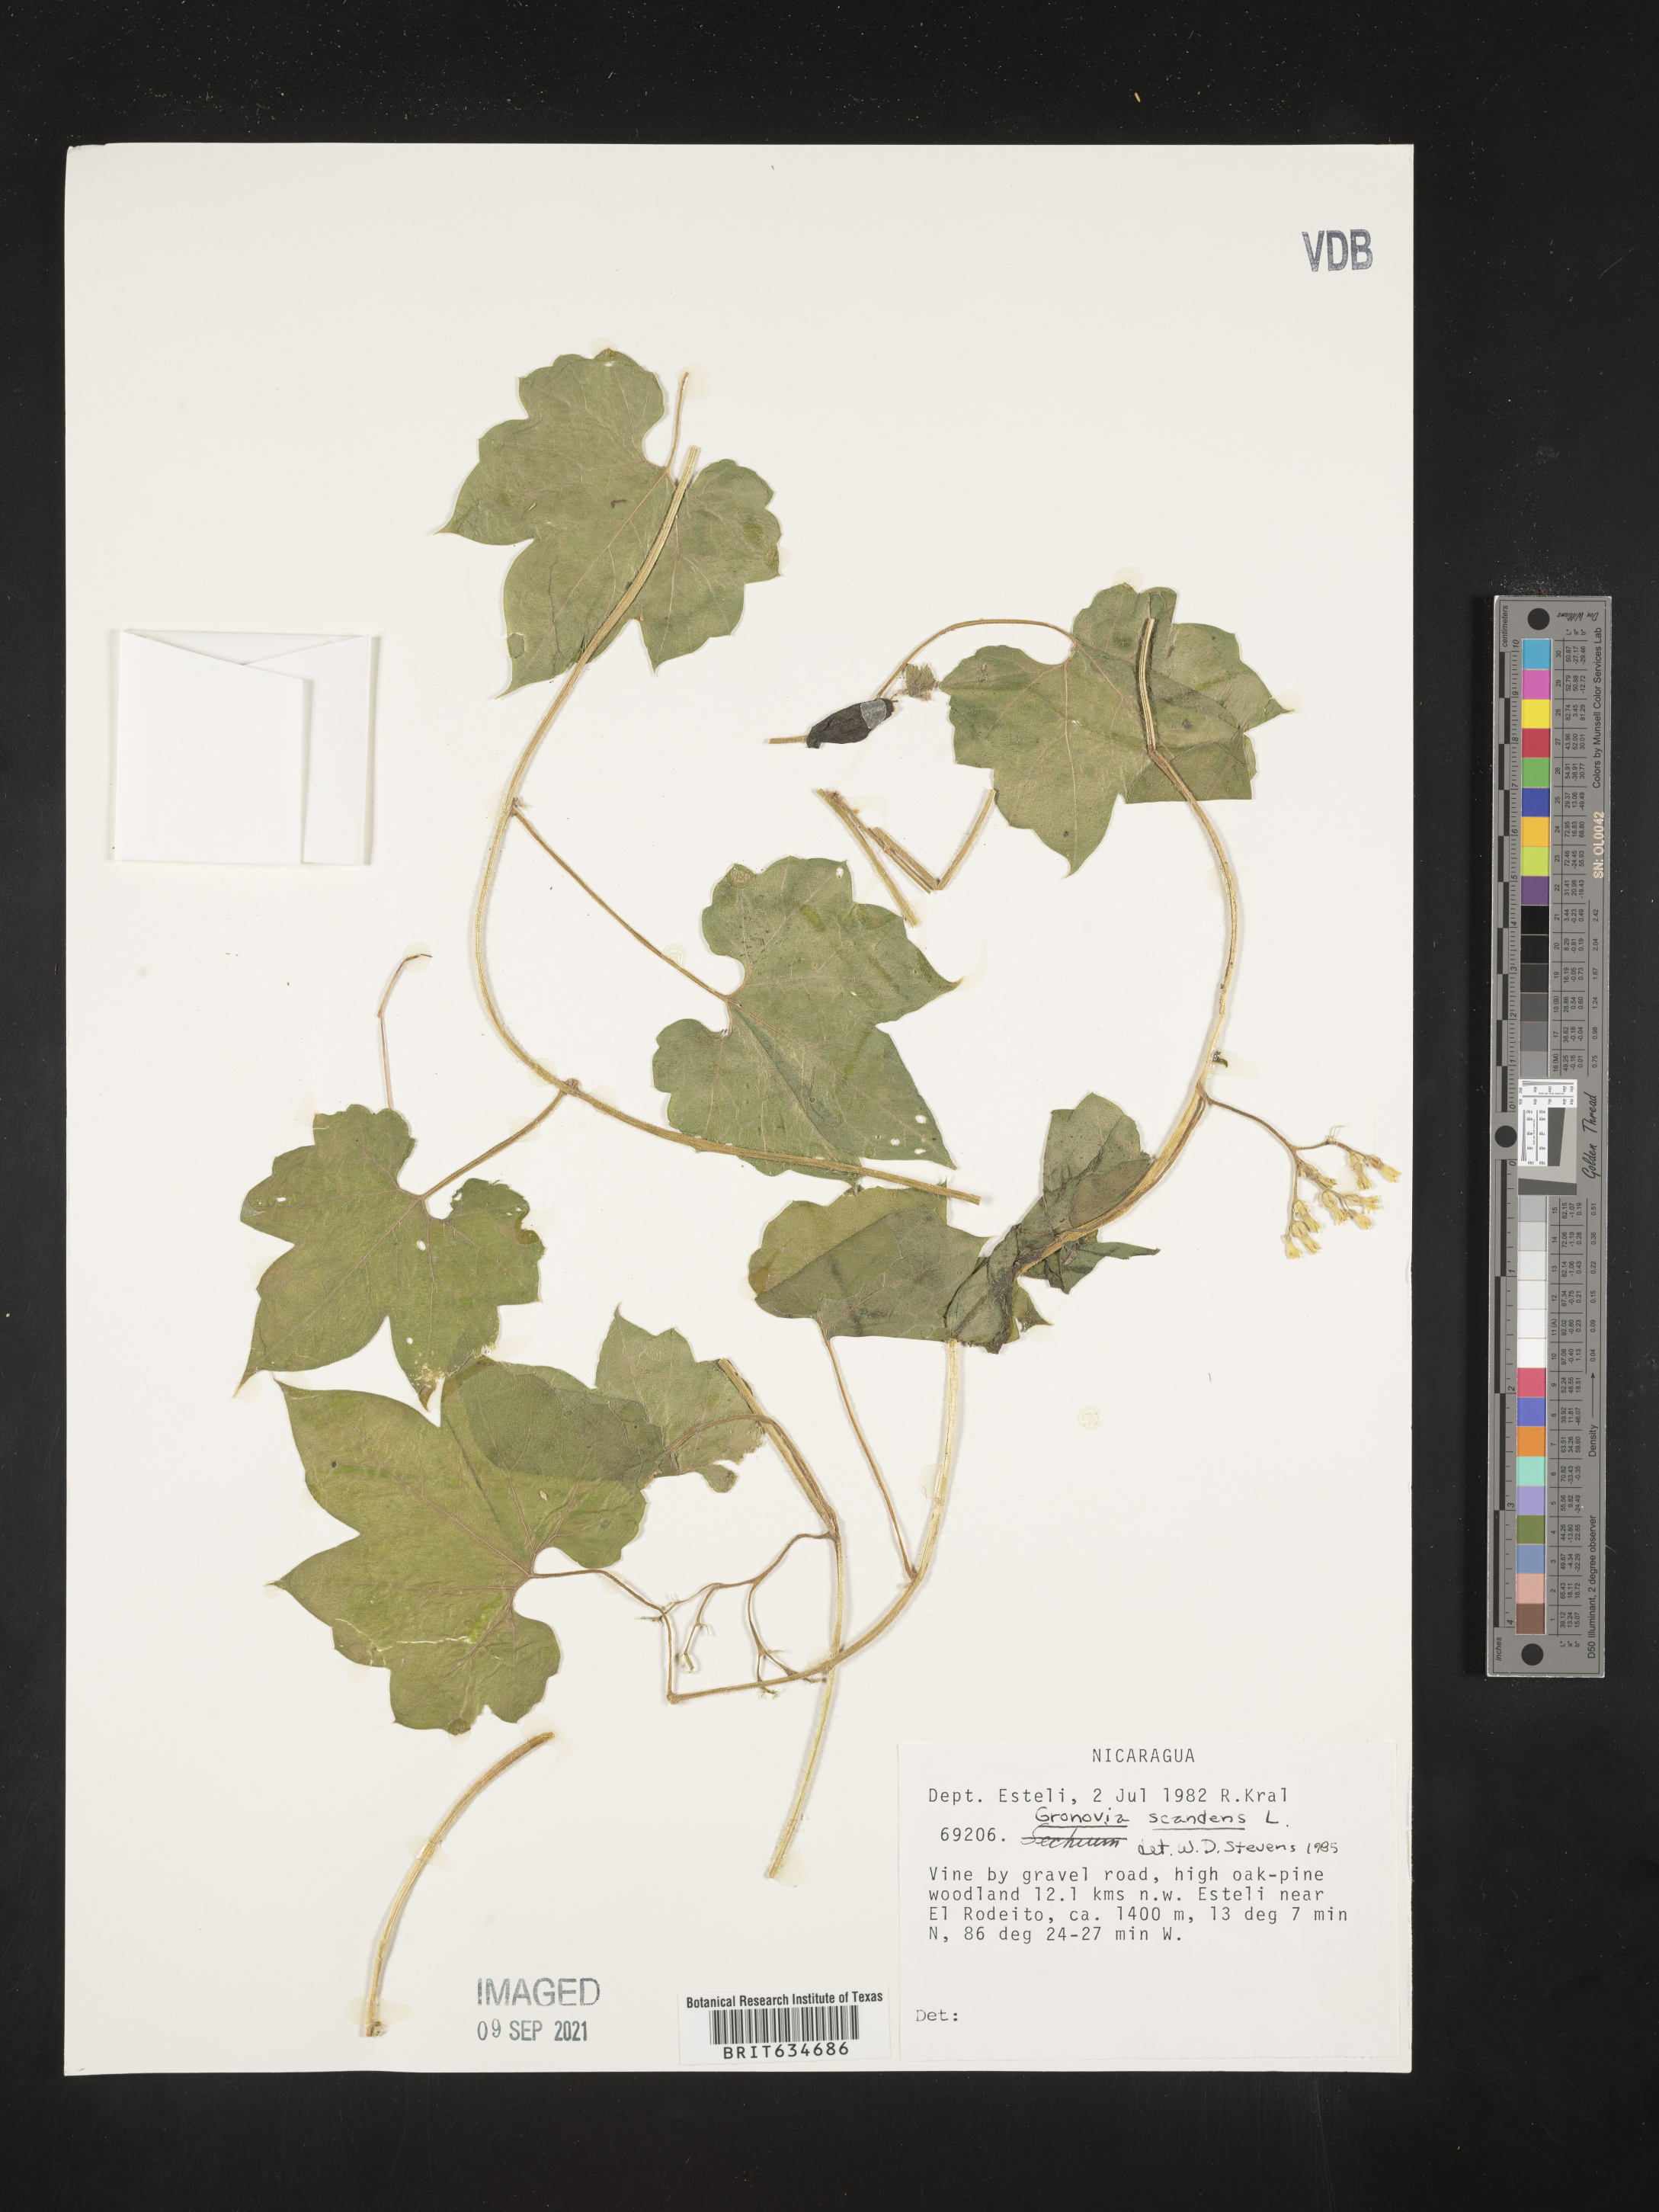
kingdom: Plantae
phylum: Tracheophyta
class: Magnoliopsida
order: Cornales
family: Loasaceae
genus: Gronovia
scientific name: Gronovia scandens
